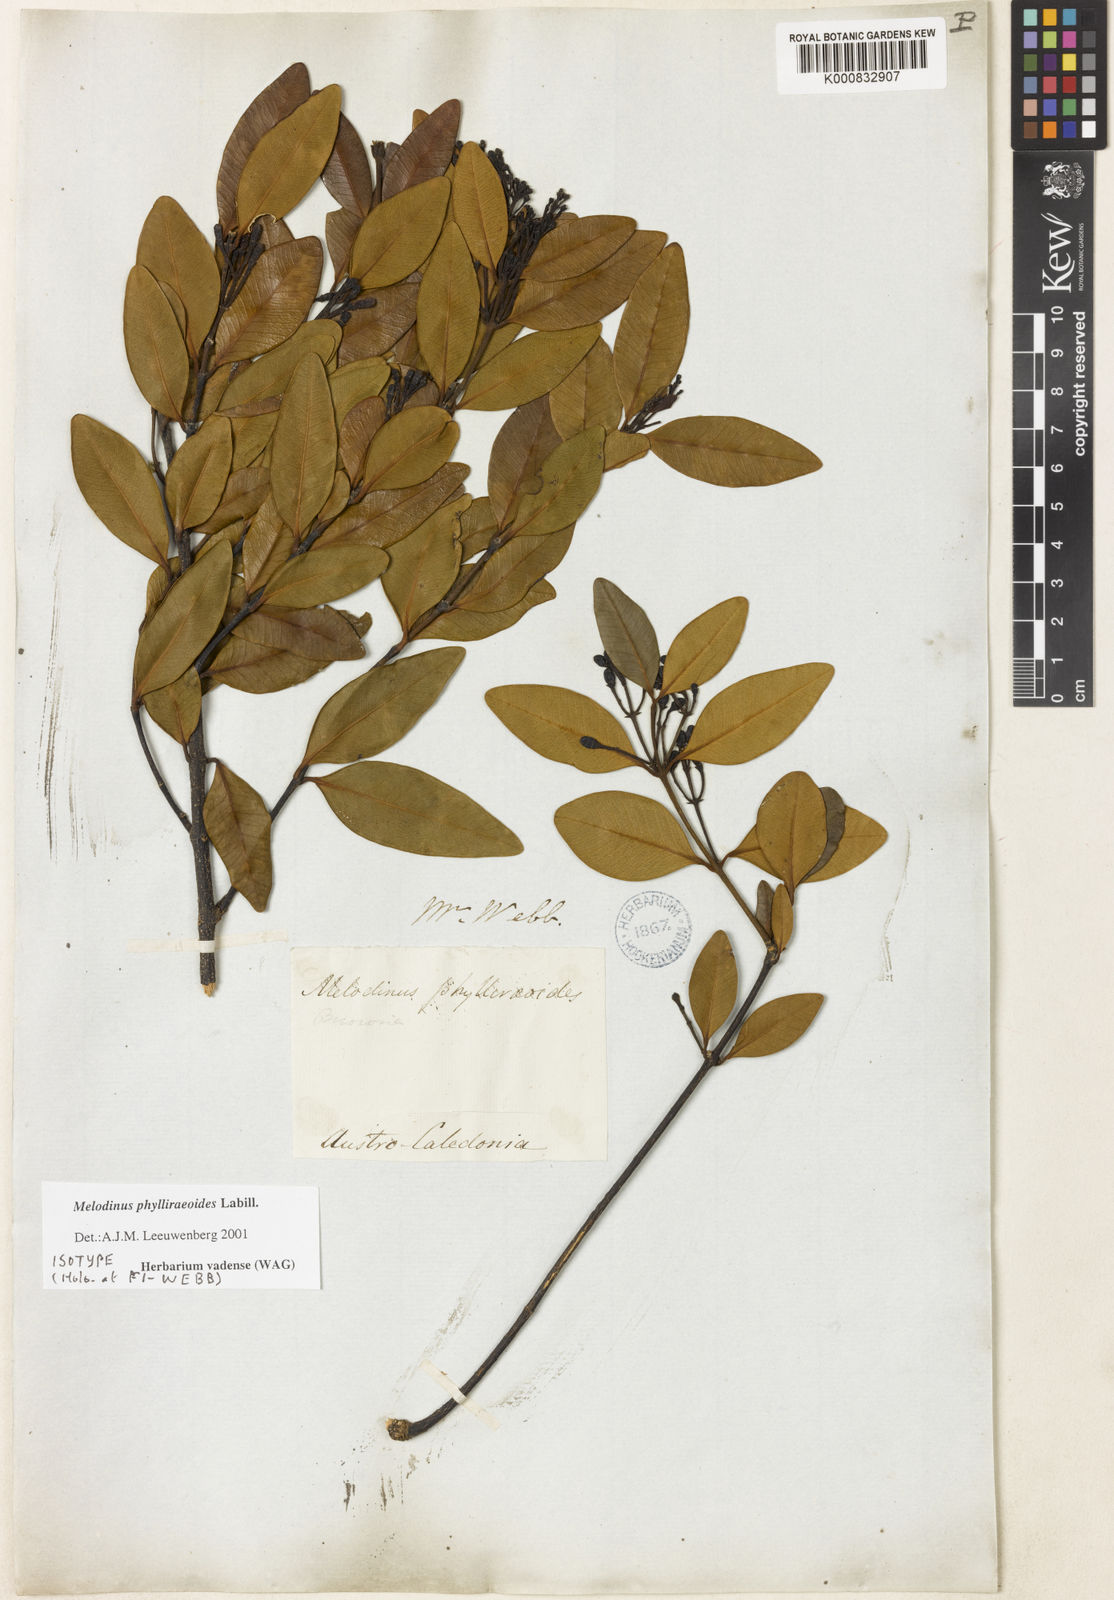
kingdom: Plantae
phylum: Tracheophyta
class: Magnoliopsida
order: Gentianales
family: Apocynaceae
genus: Melodinus
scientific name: Melodinus
